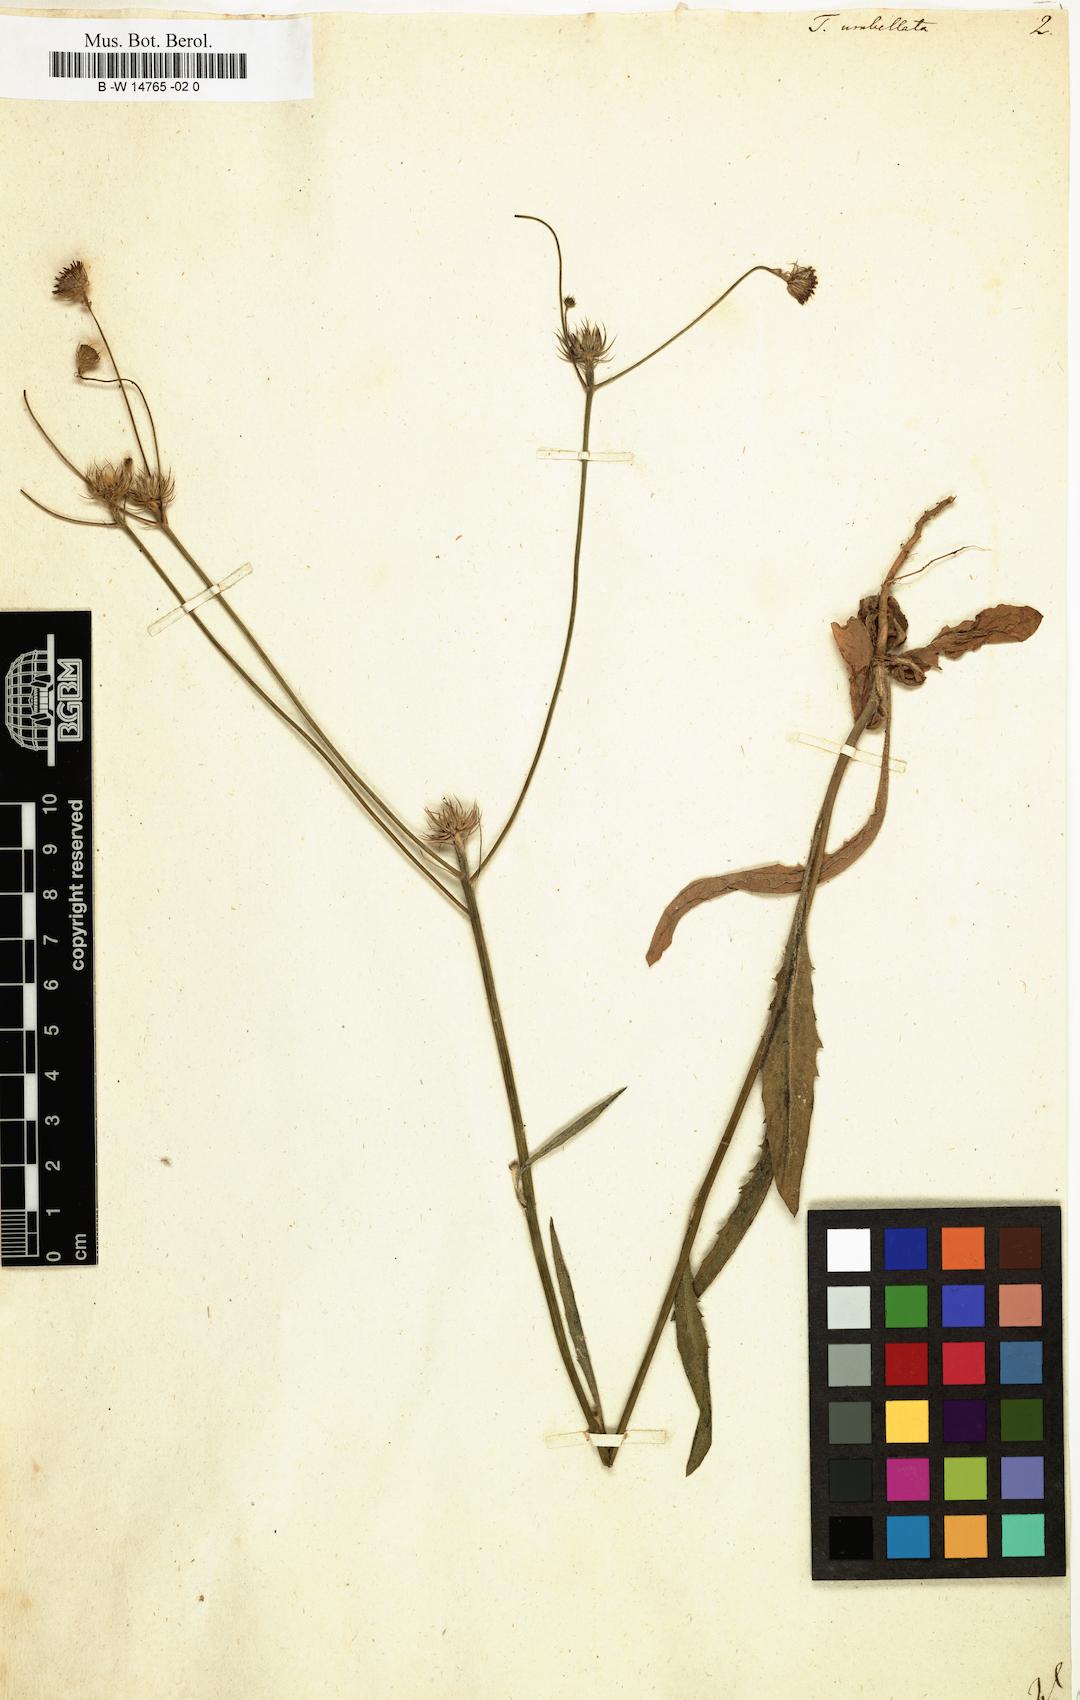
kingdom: Plantae
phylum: Tracheophyta
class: Magnoliopsida
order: Asterales
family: Asteraceae
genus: Tolpis
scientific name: Tolpis umbellata
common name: Yellow hawkweed
